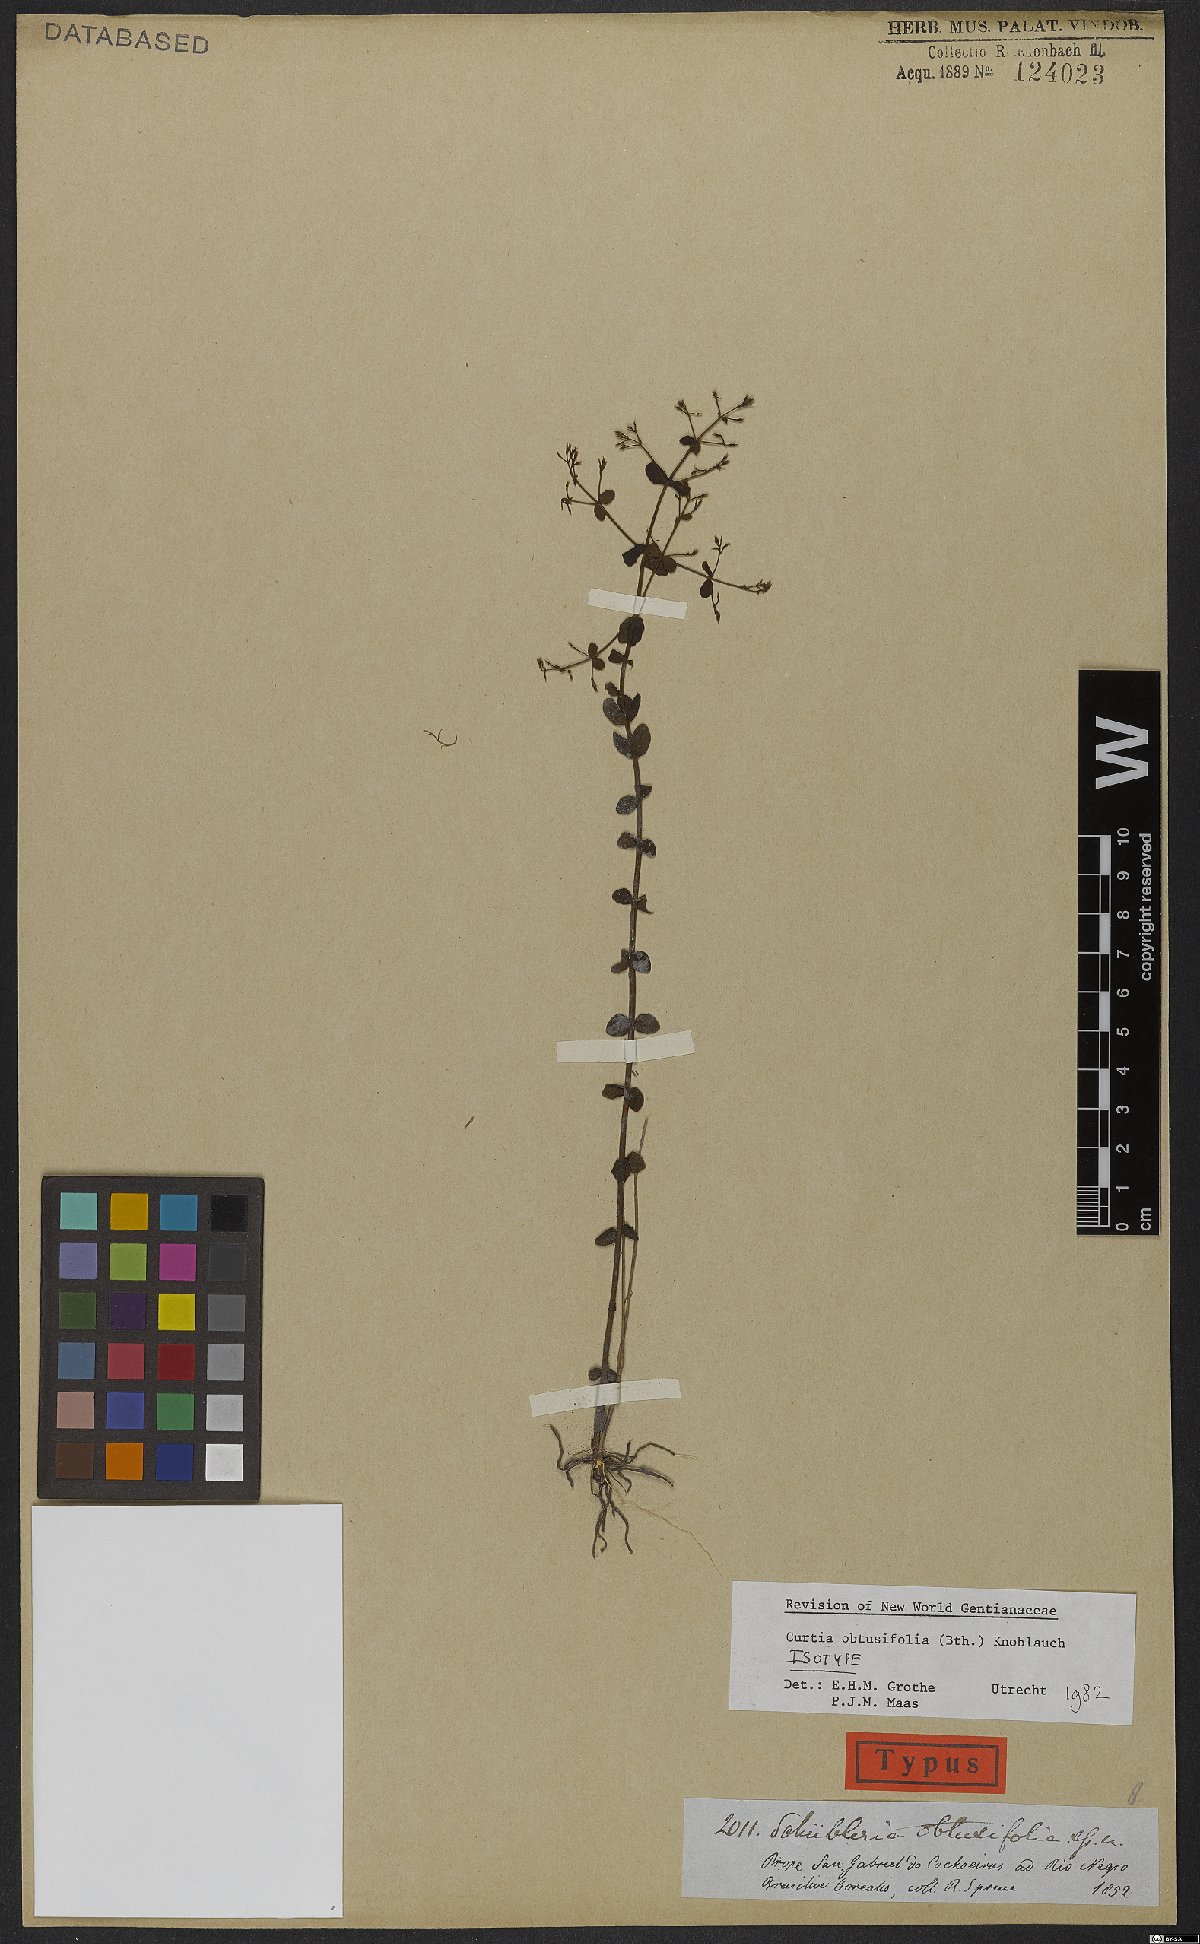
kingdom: Plantae
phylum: Tracheophyta
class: Magnoliopsida
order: Gentianales
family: Gentianaceae
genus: Curtia
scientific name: Curtia obtusifolia
